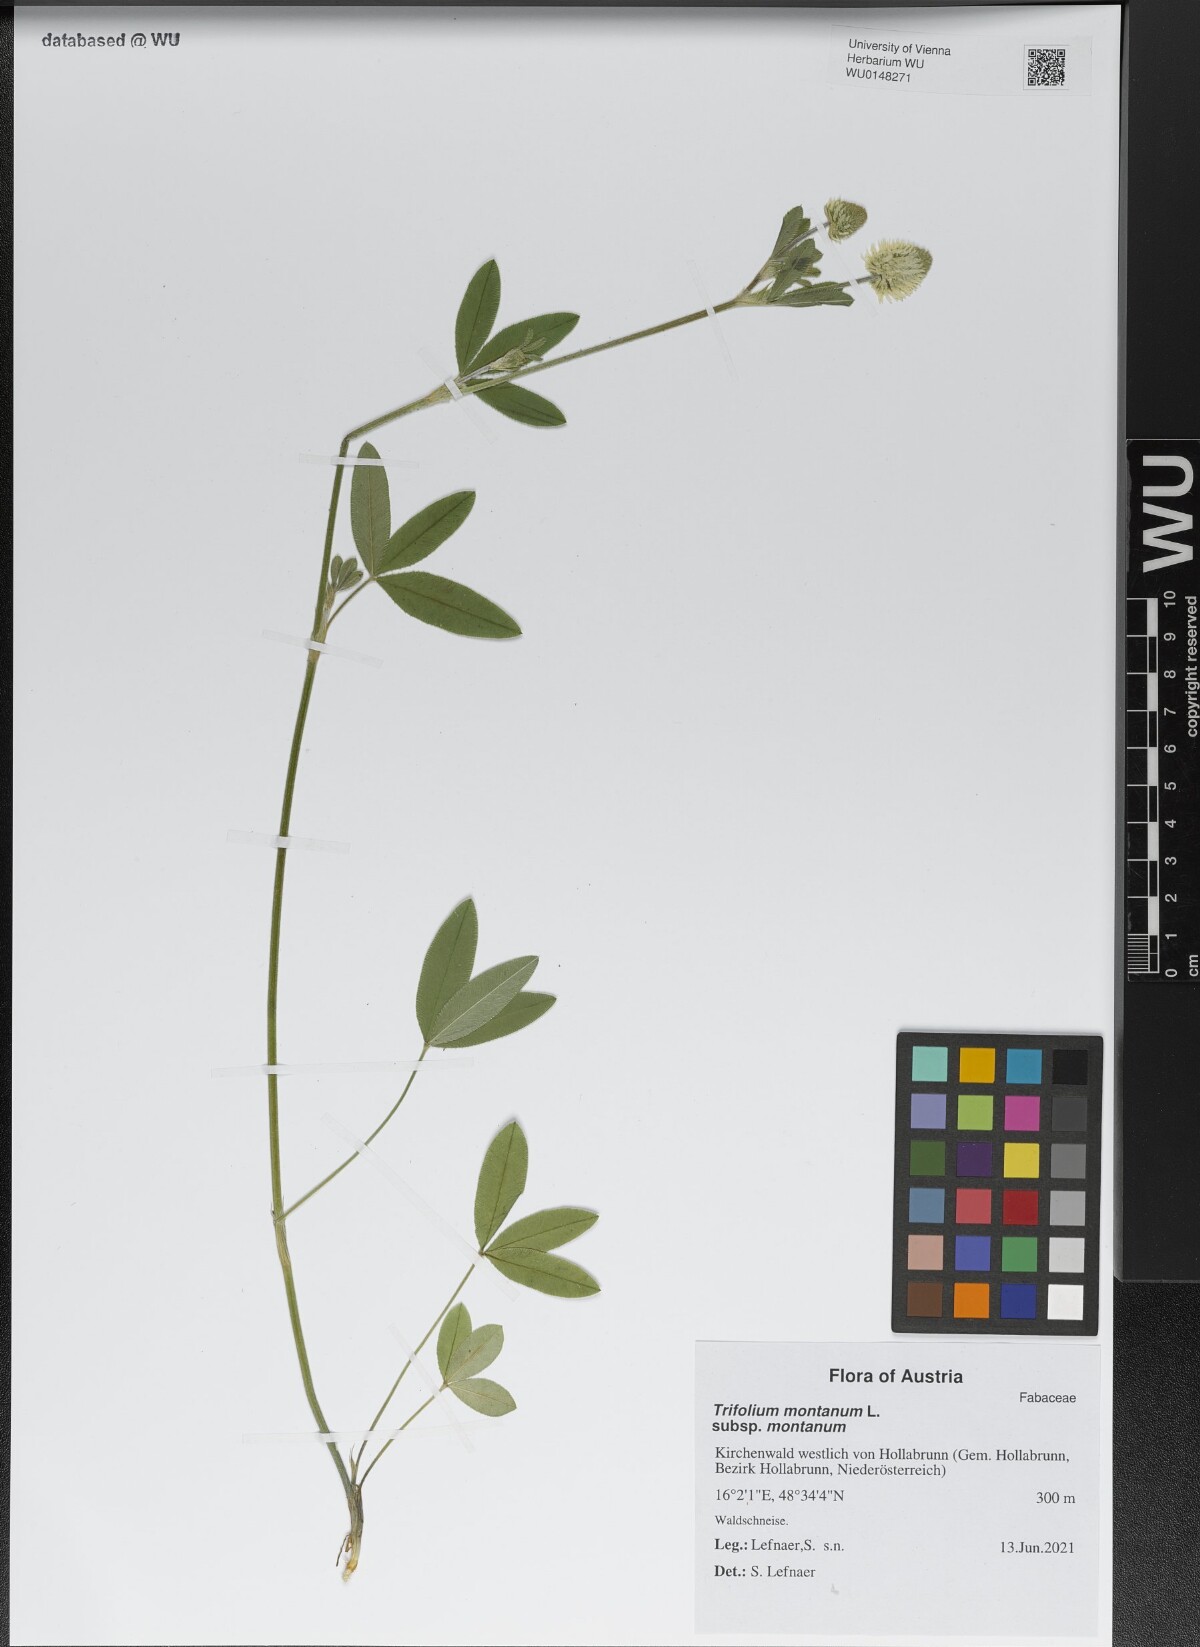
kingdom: Plantae
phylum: Tracheophyta
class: Magnoliopsida
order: Fabales
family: Fabaceae
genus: Trifolium
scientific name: Trifolium montanum
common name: Mountain clover
